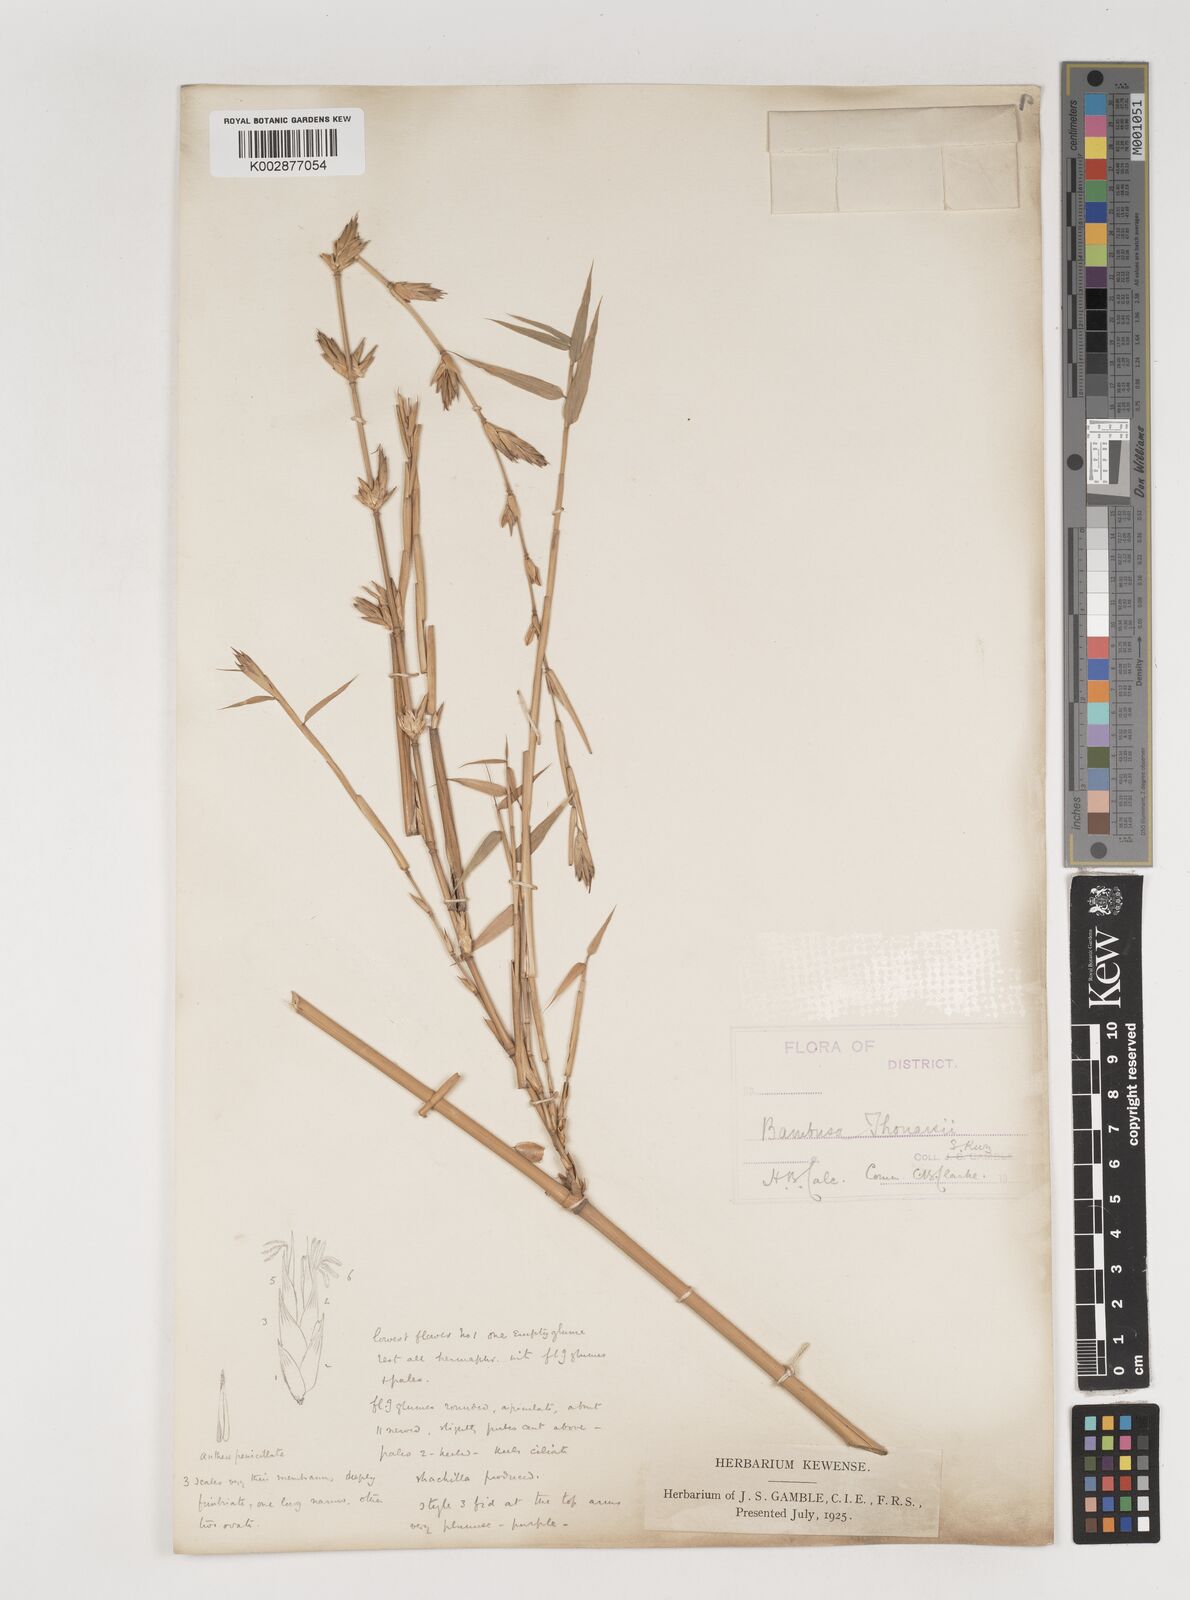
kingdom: Plantae
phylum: Tracheophyta
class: Liliopsida
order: Poales
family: Poaceae
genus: Bambusa
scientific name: Bambusa vulgaris
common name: Common bamboo
